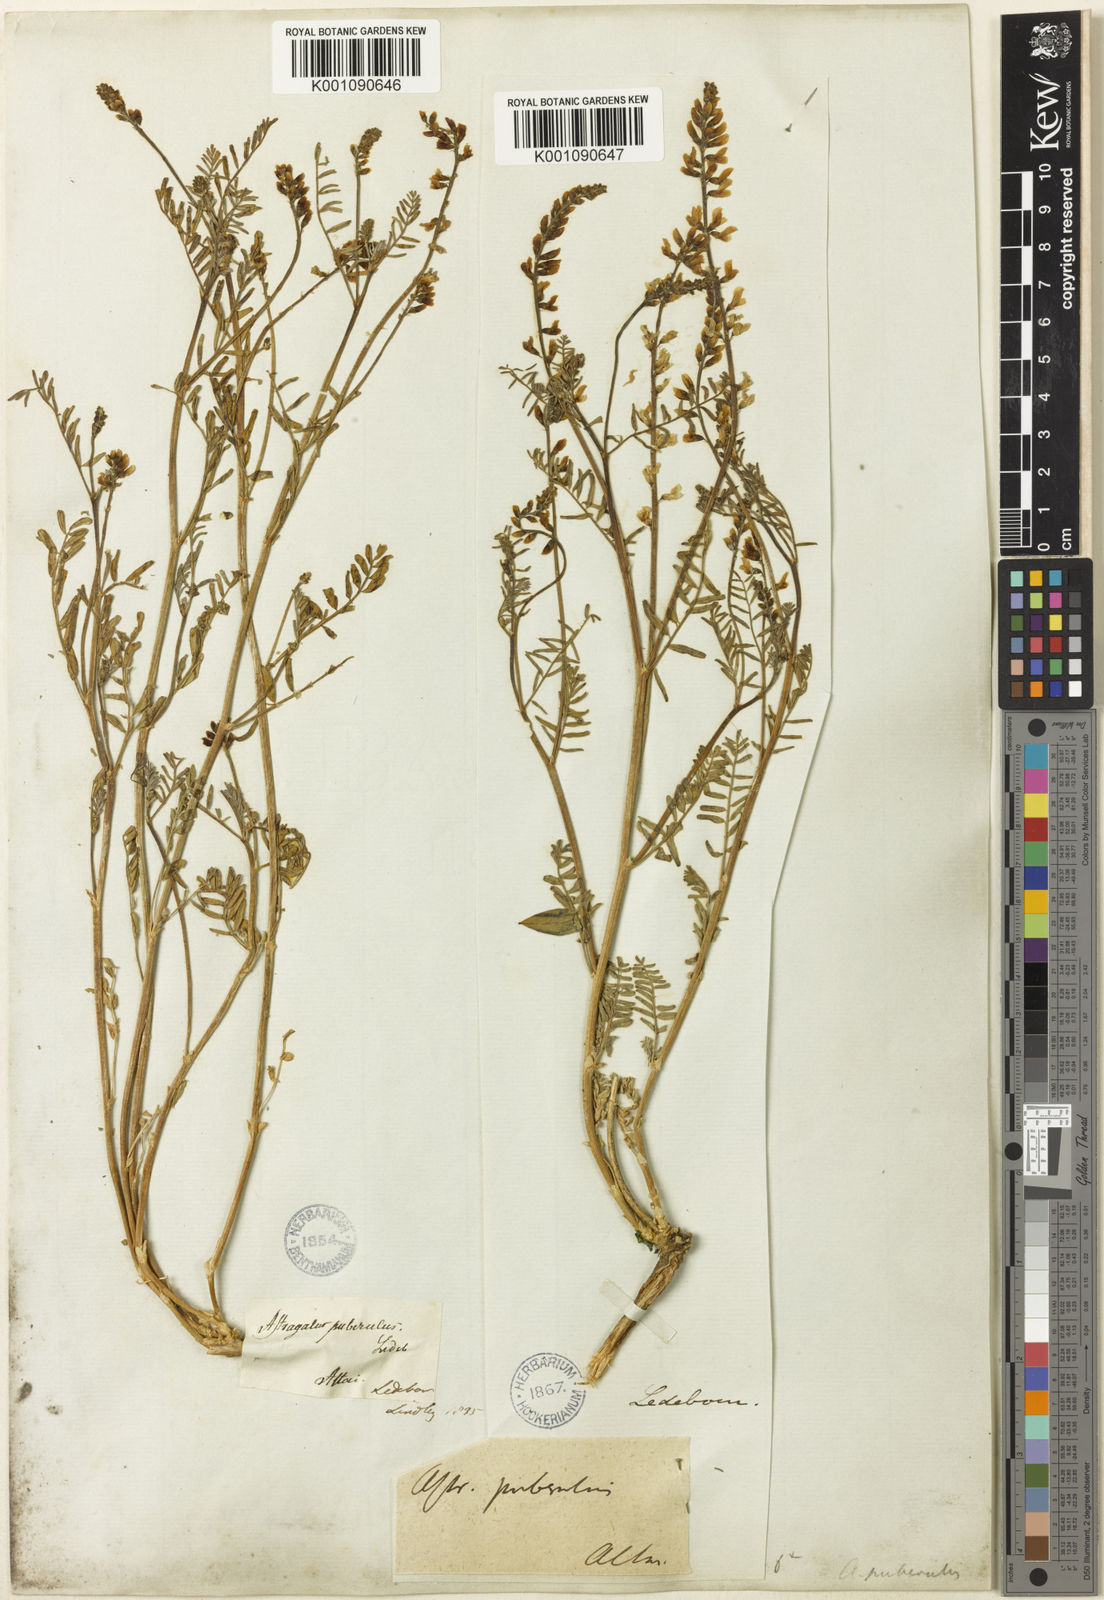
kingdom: Plantae
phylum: Tracheophyta
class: Magnoliopsida
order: Fabales
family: Fabaceae
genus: Astragalus
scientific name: Astragalus
